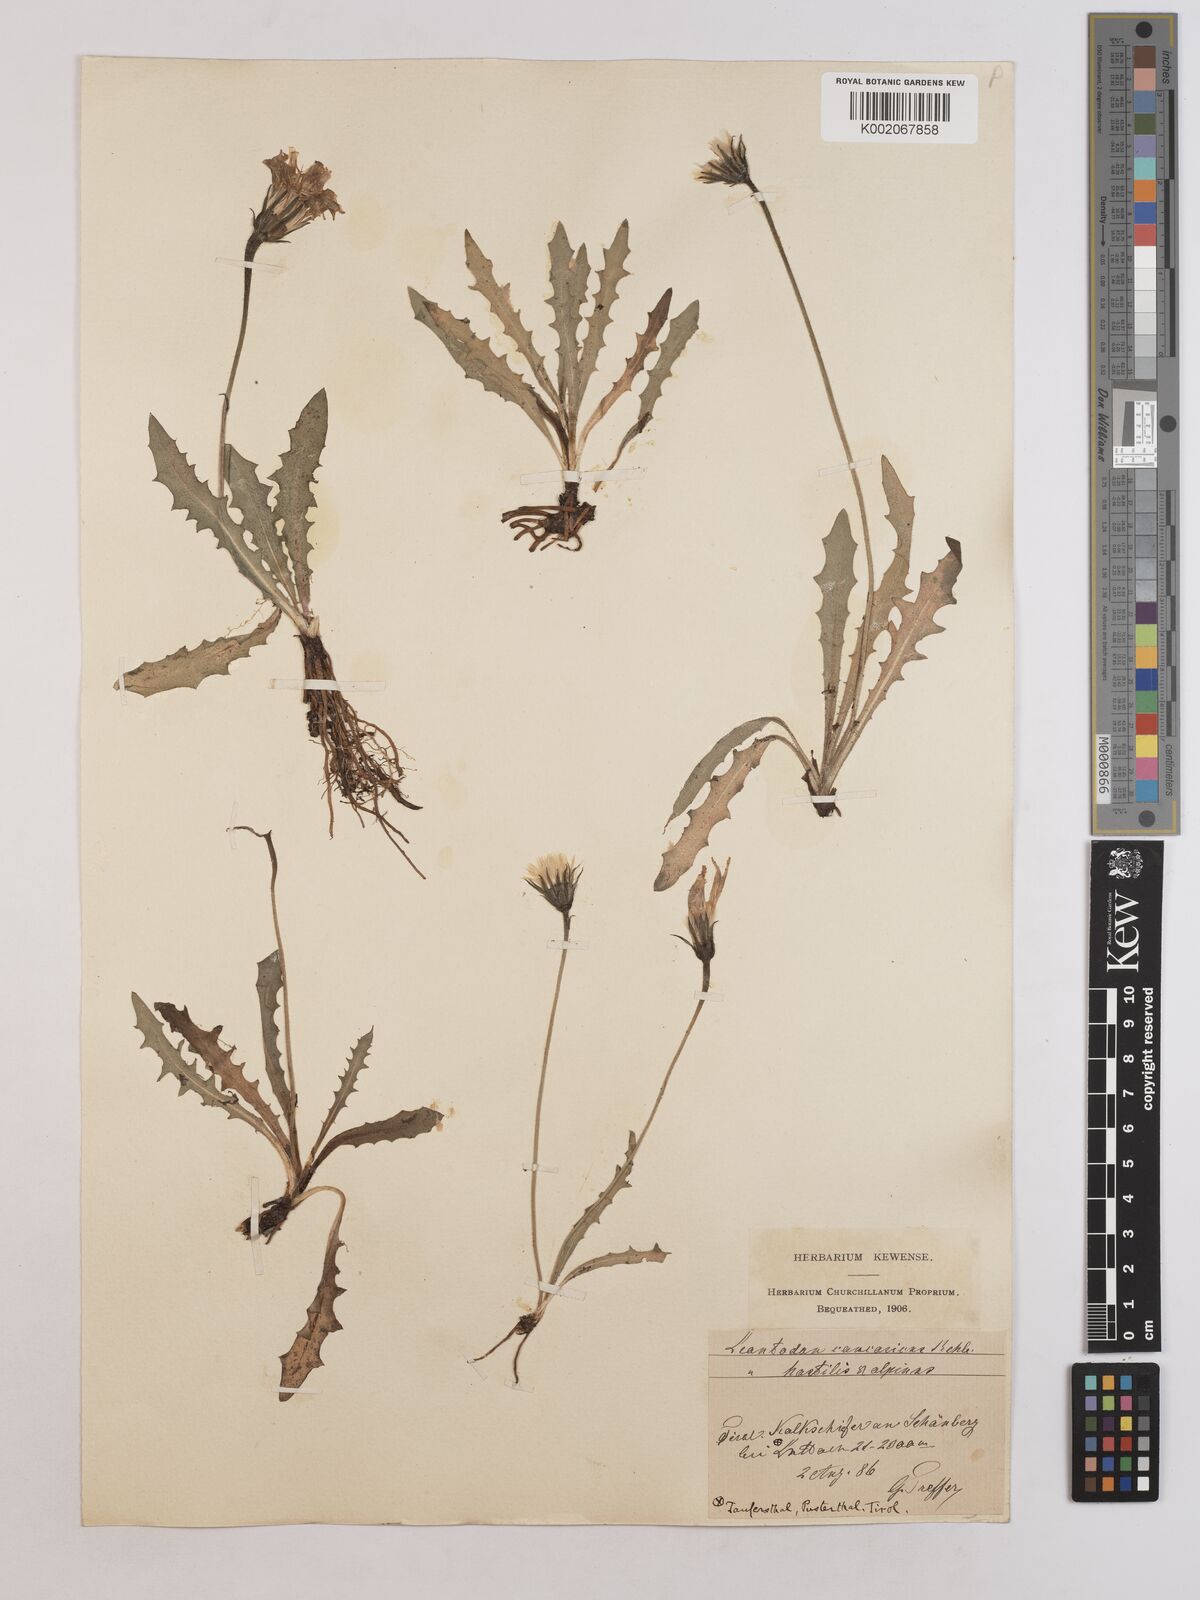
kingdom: Plantae
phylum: Tracheophyta
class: Magnoliopsida
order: Asterales
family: Asteraceae
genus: Leontodon
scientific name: Leontodon hispidus
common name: Rough hawkbit
